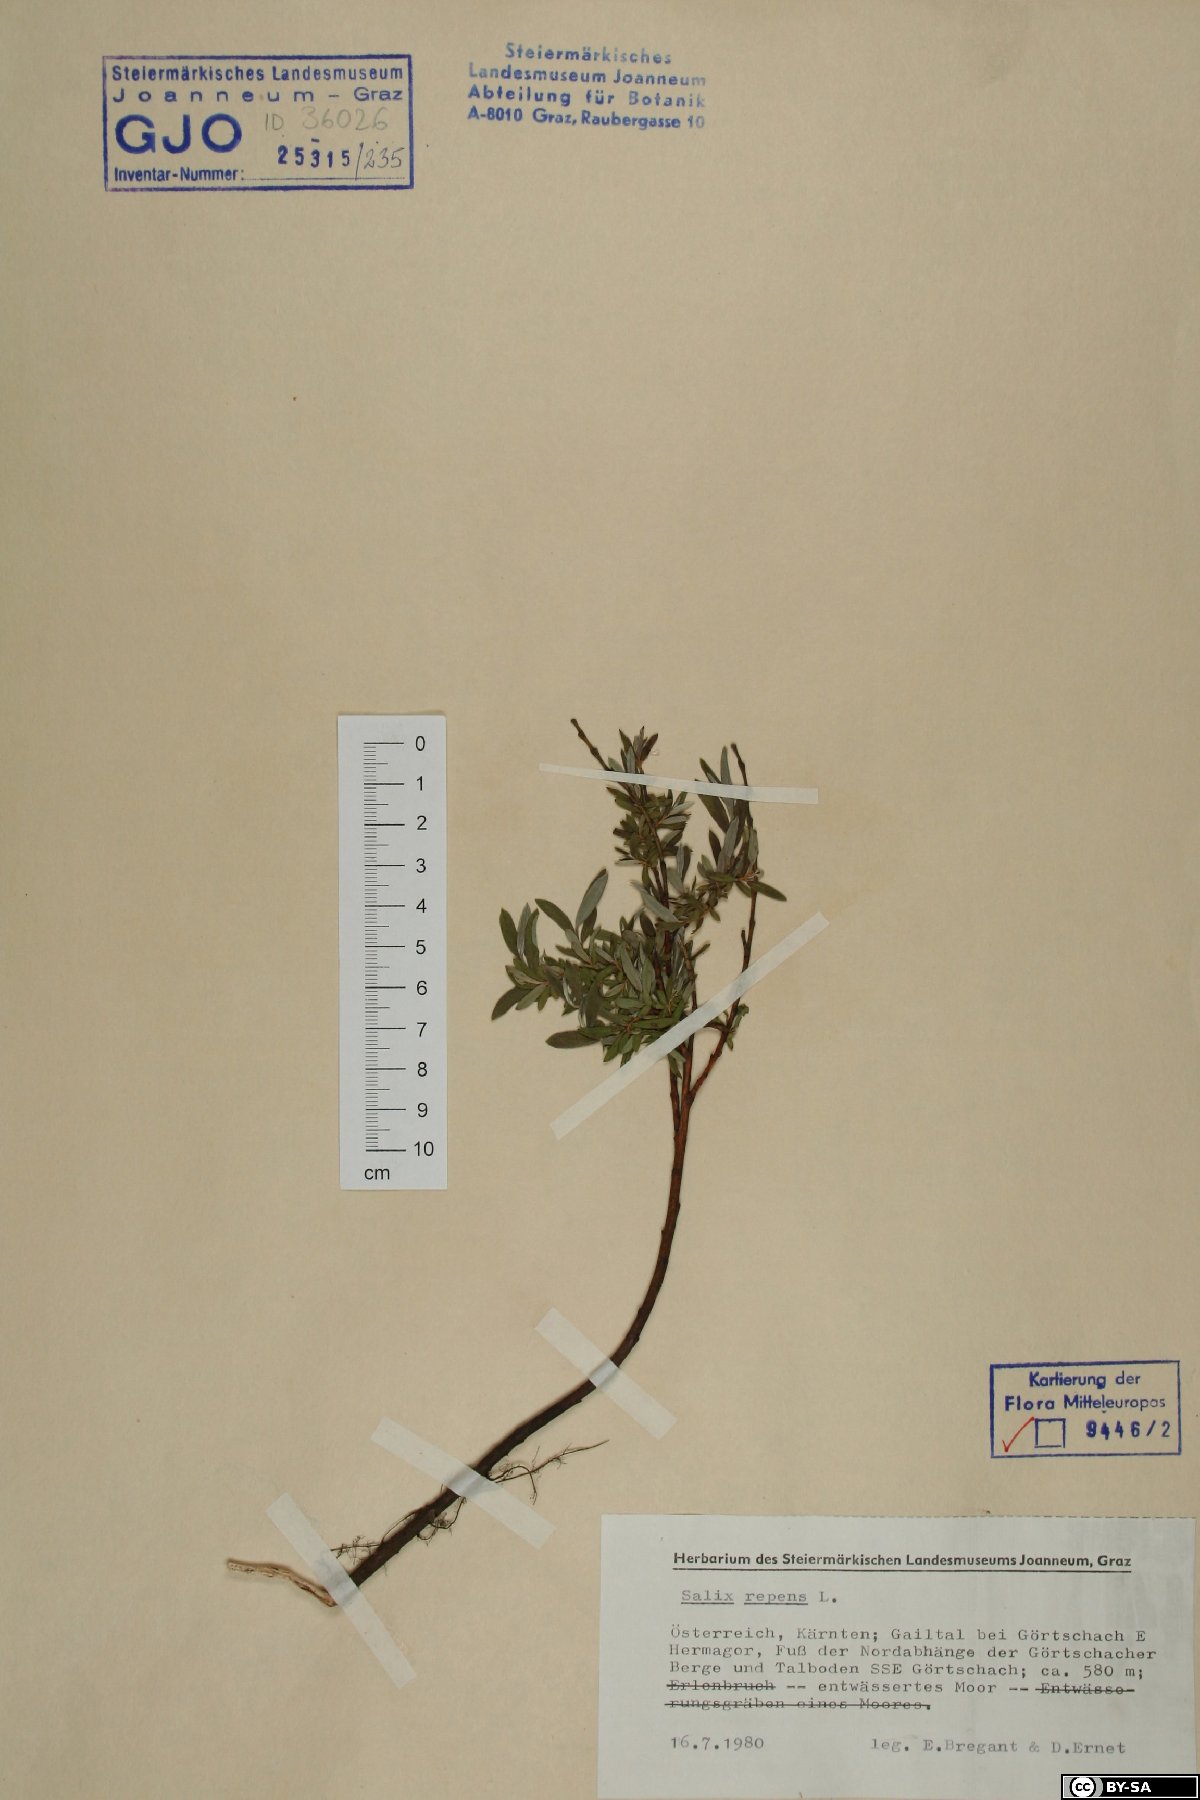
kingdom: Plantae
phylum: Tracheophyta
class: Magnoliopsida
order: Malpighiales
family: Salicaceae
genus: Salix
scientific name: Salix repens
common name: Creeping willow
